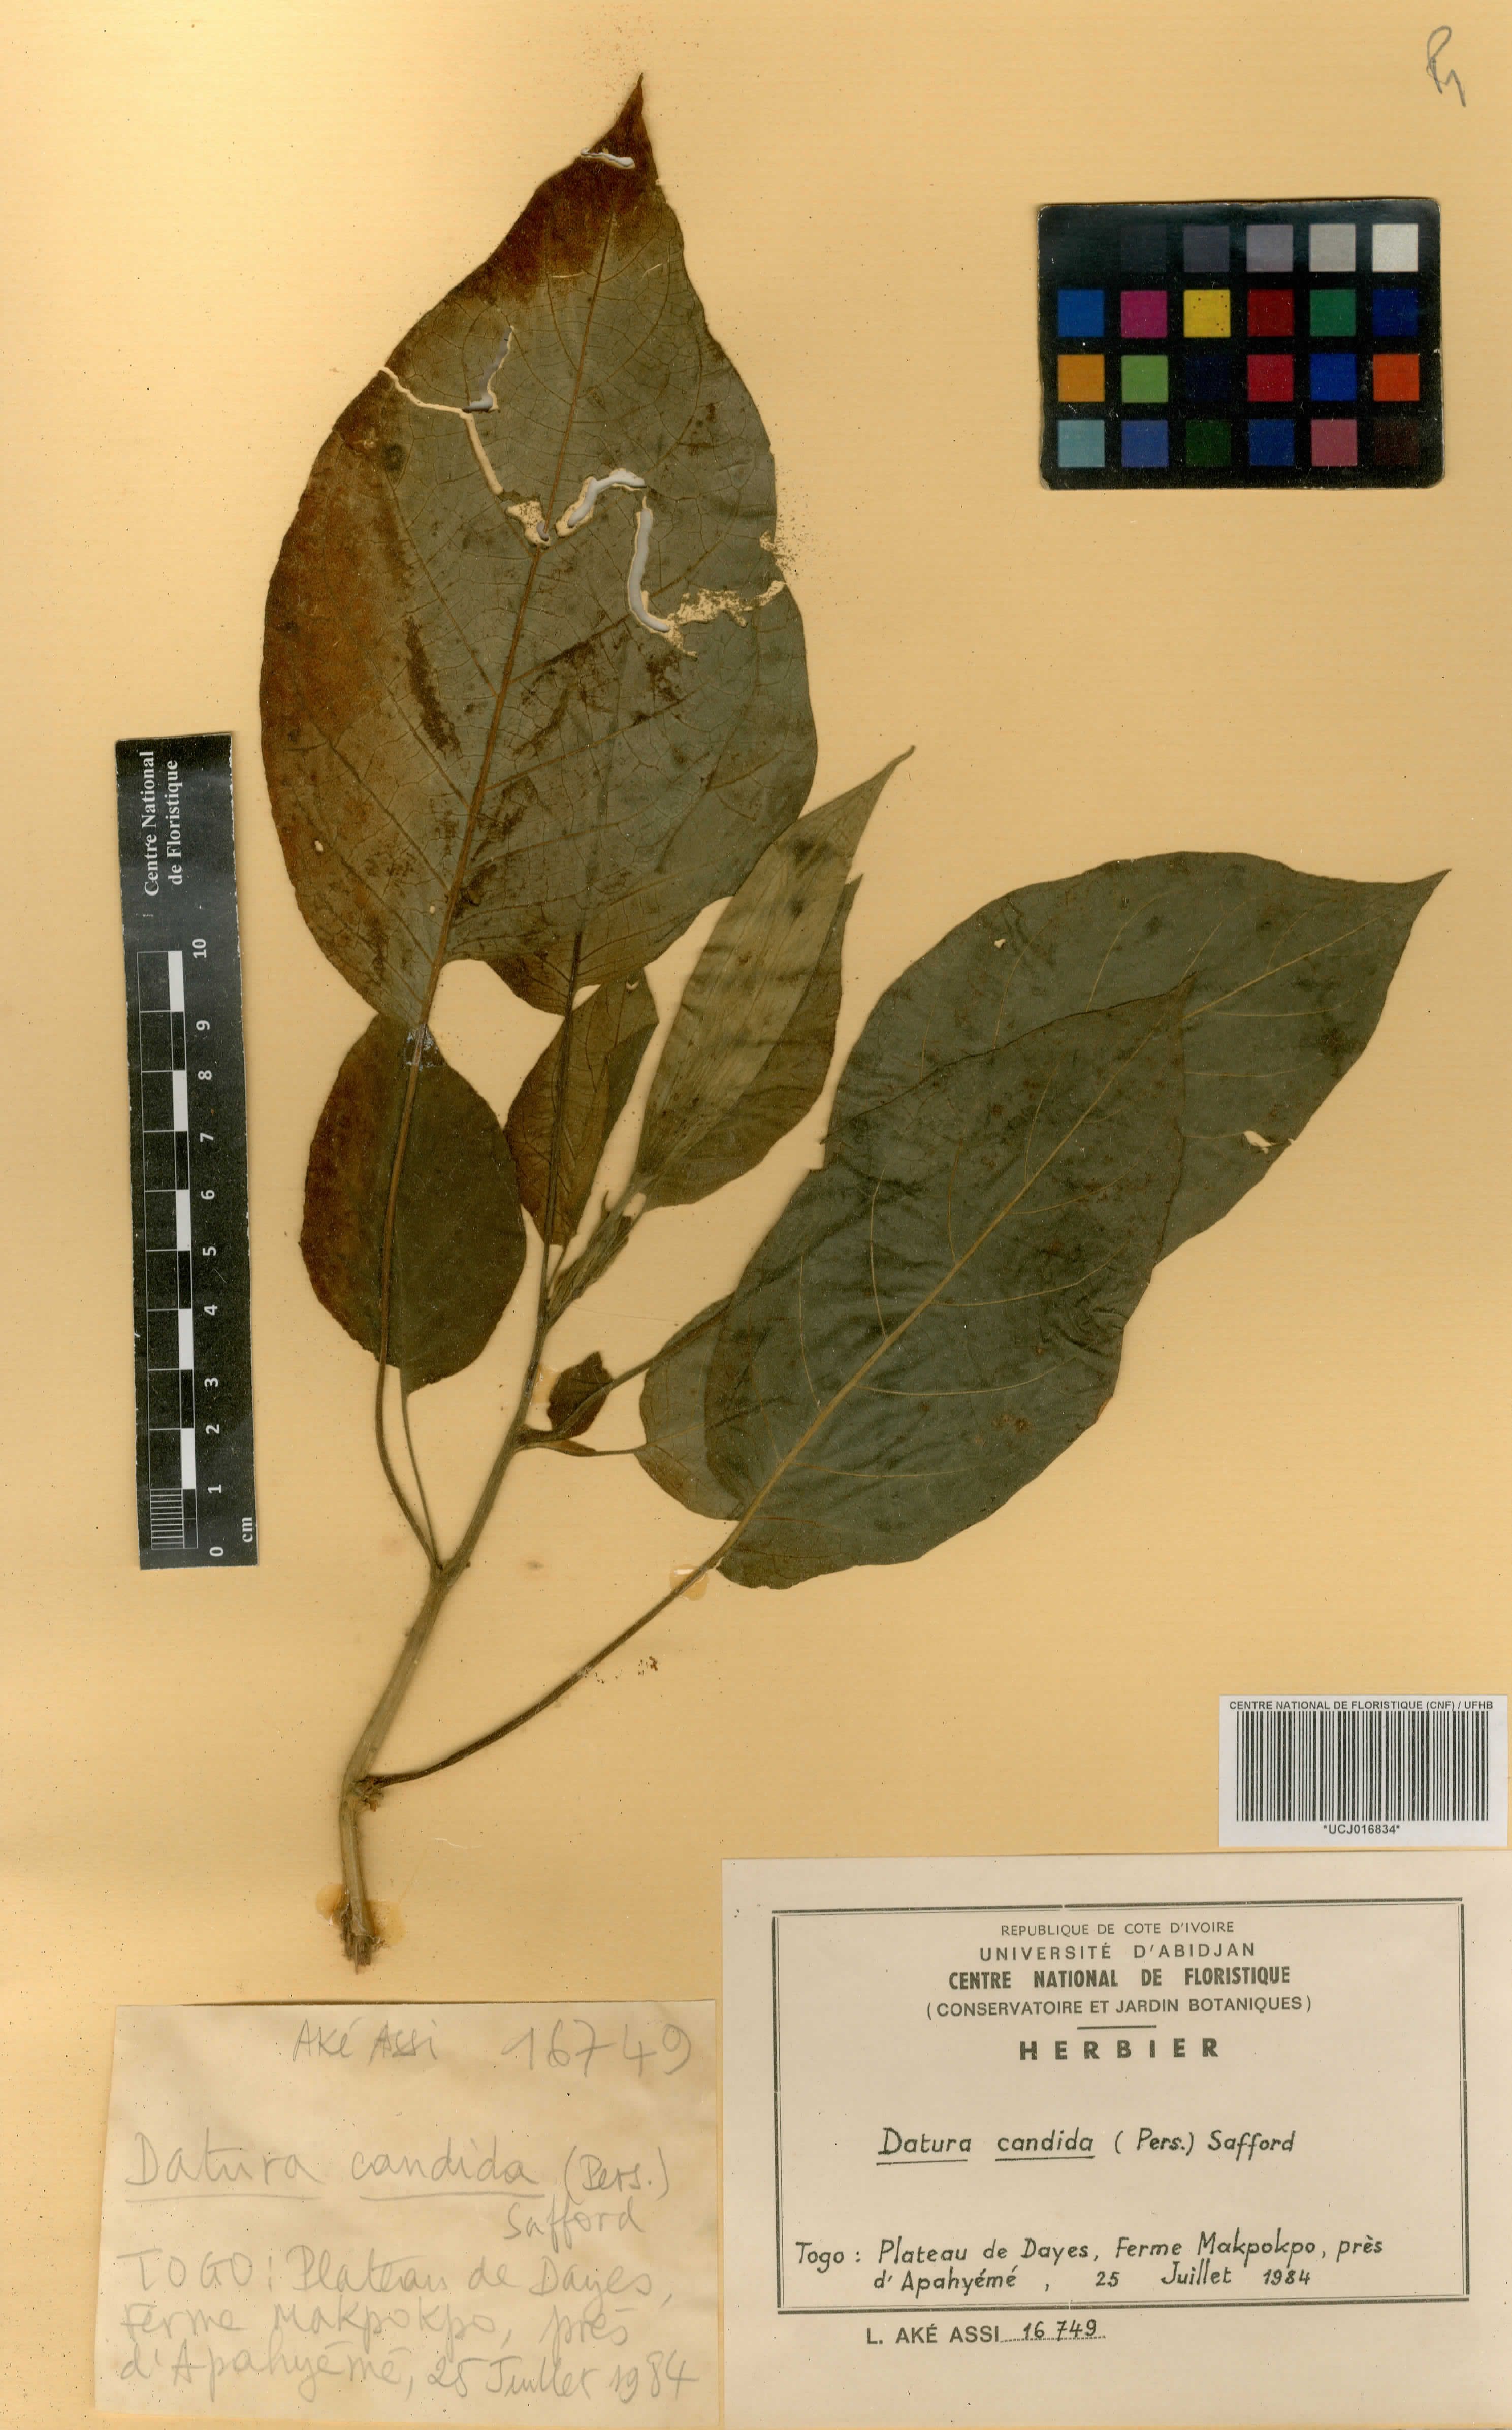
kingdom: Plantae
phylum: Tracheophyta
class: Magnoliopsida
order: Solanales
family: Solanaceae
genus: Brugmansia
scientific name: Brugmansia candida
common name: Angel's-trumpet
